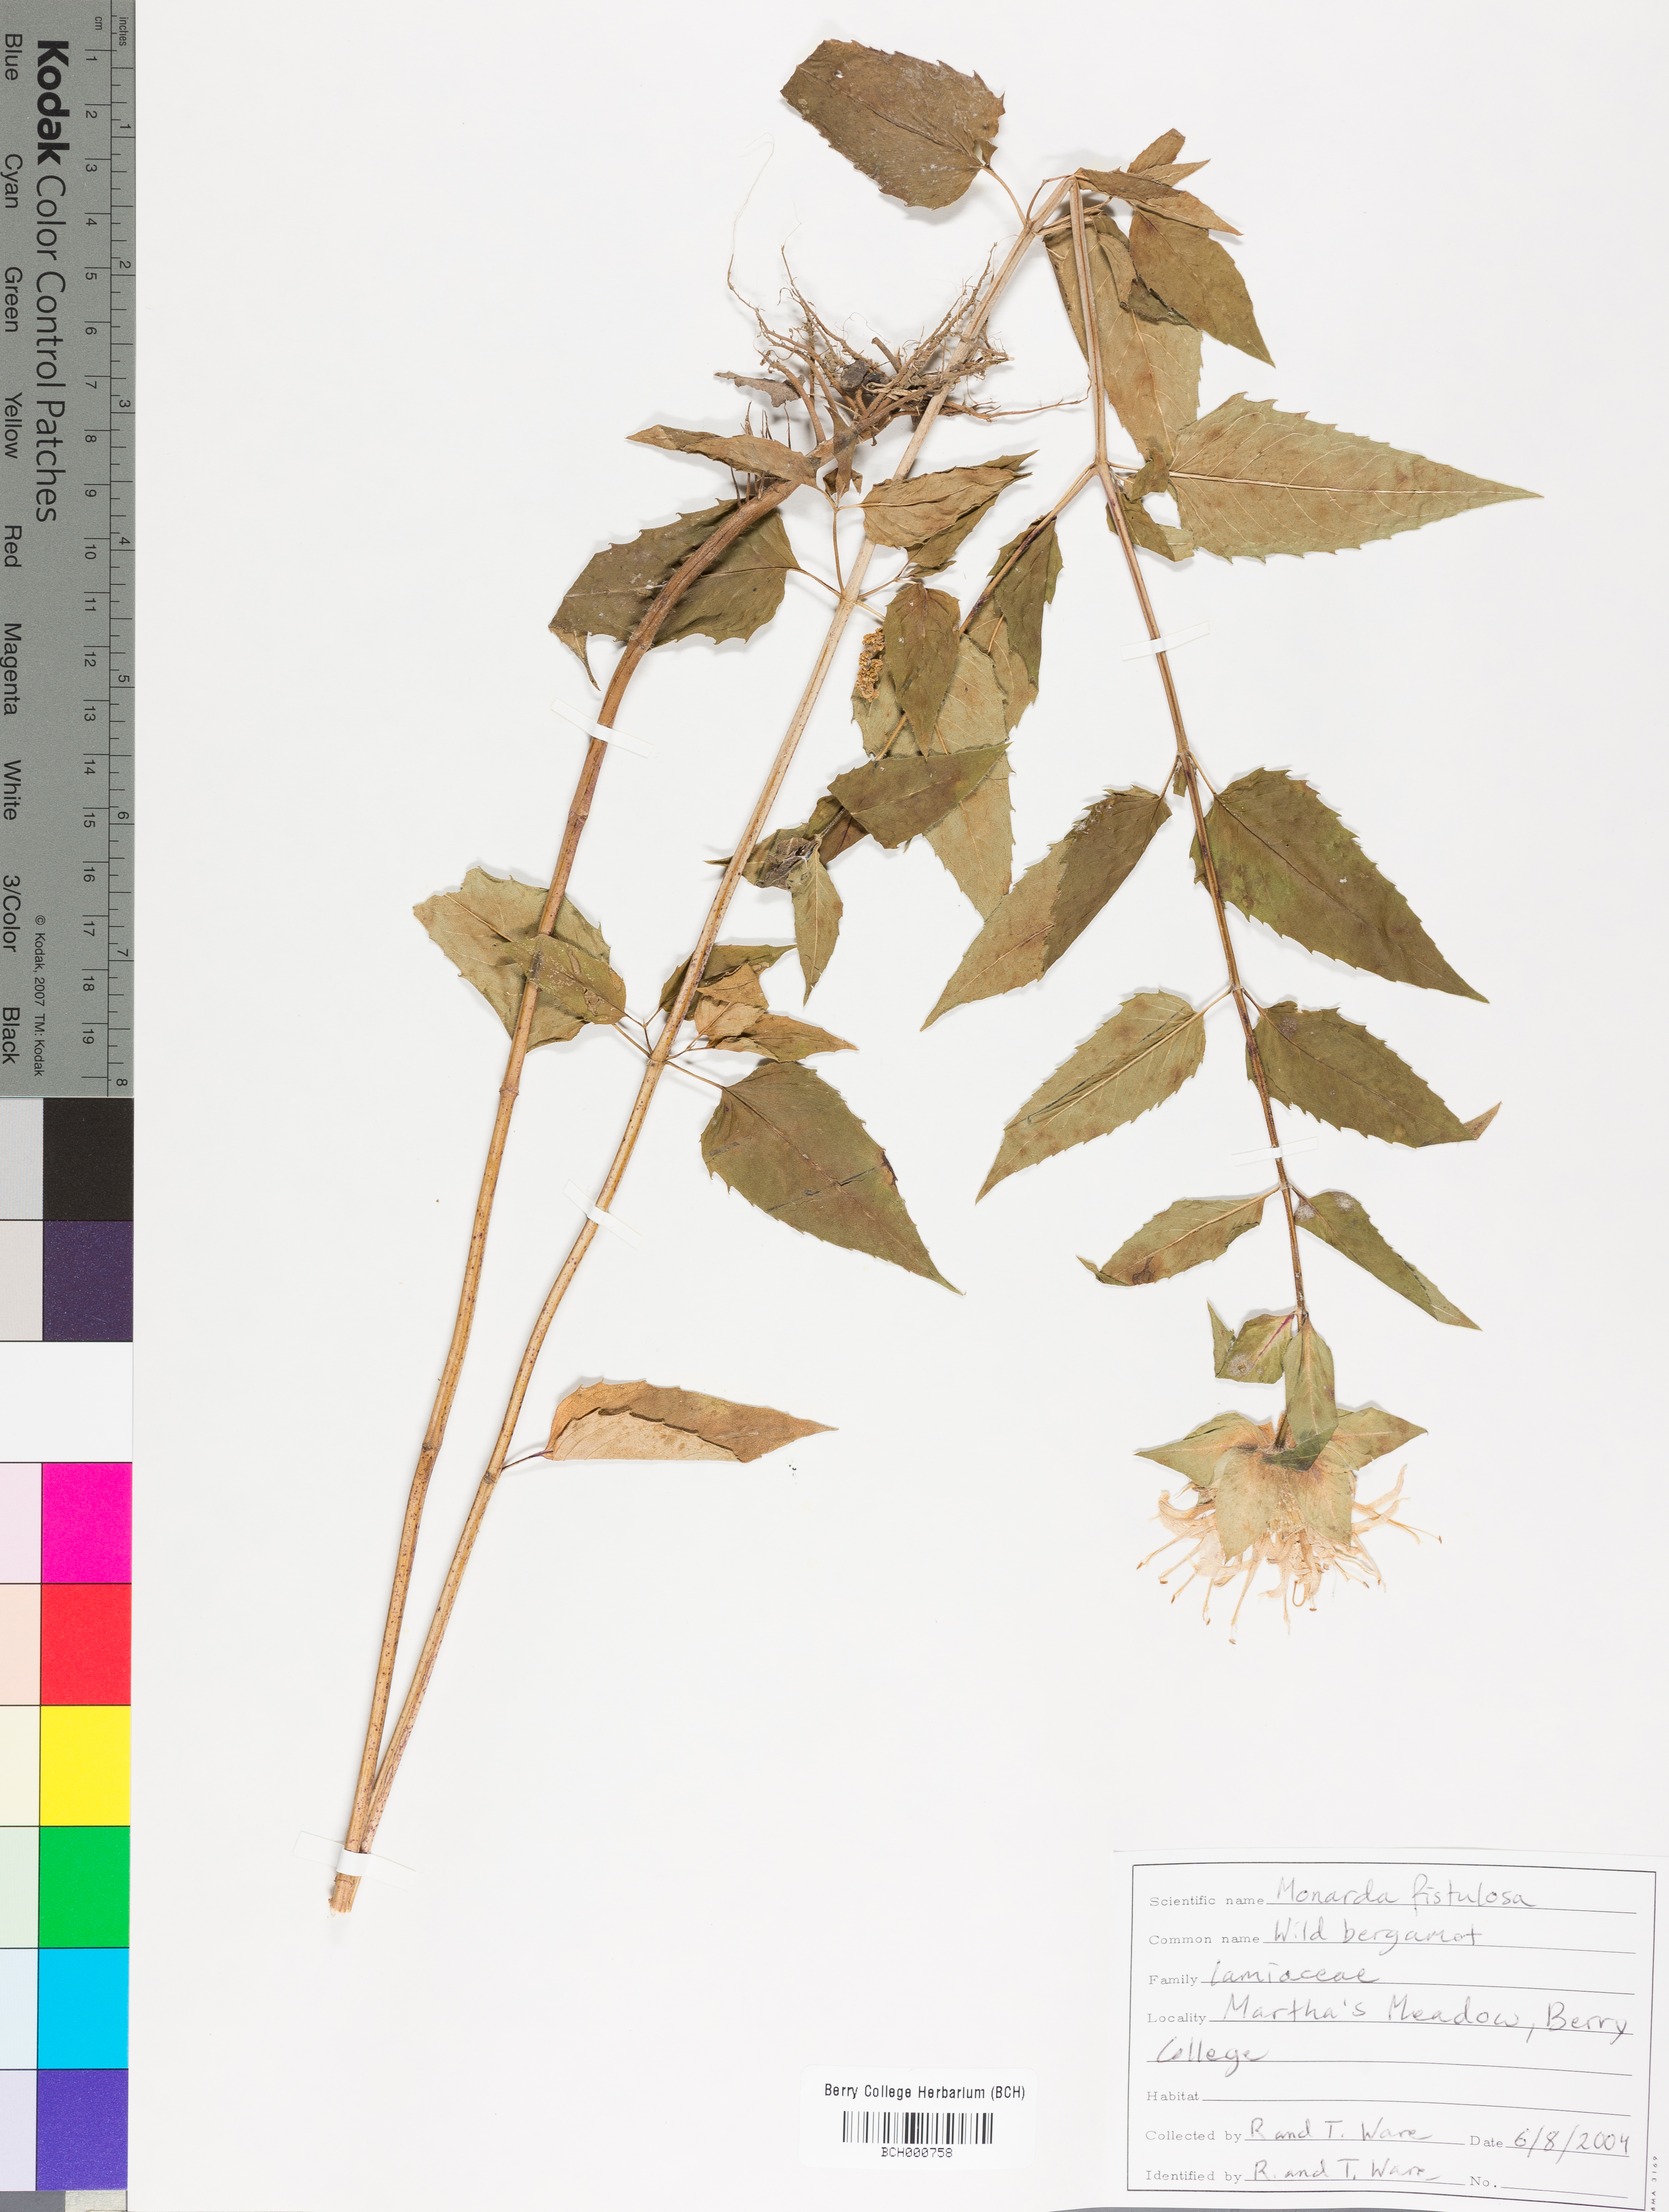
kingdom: Plantae
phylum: Tracheophyta
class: Magnoliopsida
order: Lamiales
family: Lamiaceae
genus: Monarda
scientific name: Monarda fistulosa
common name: Purple beebalm
